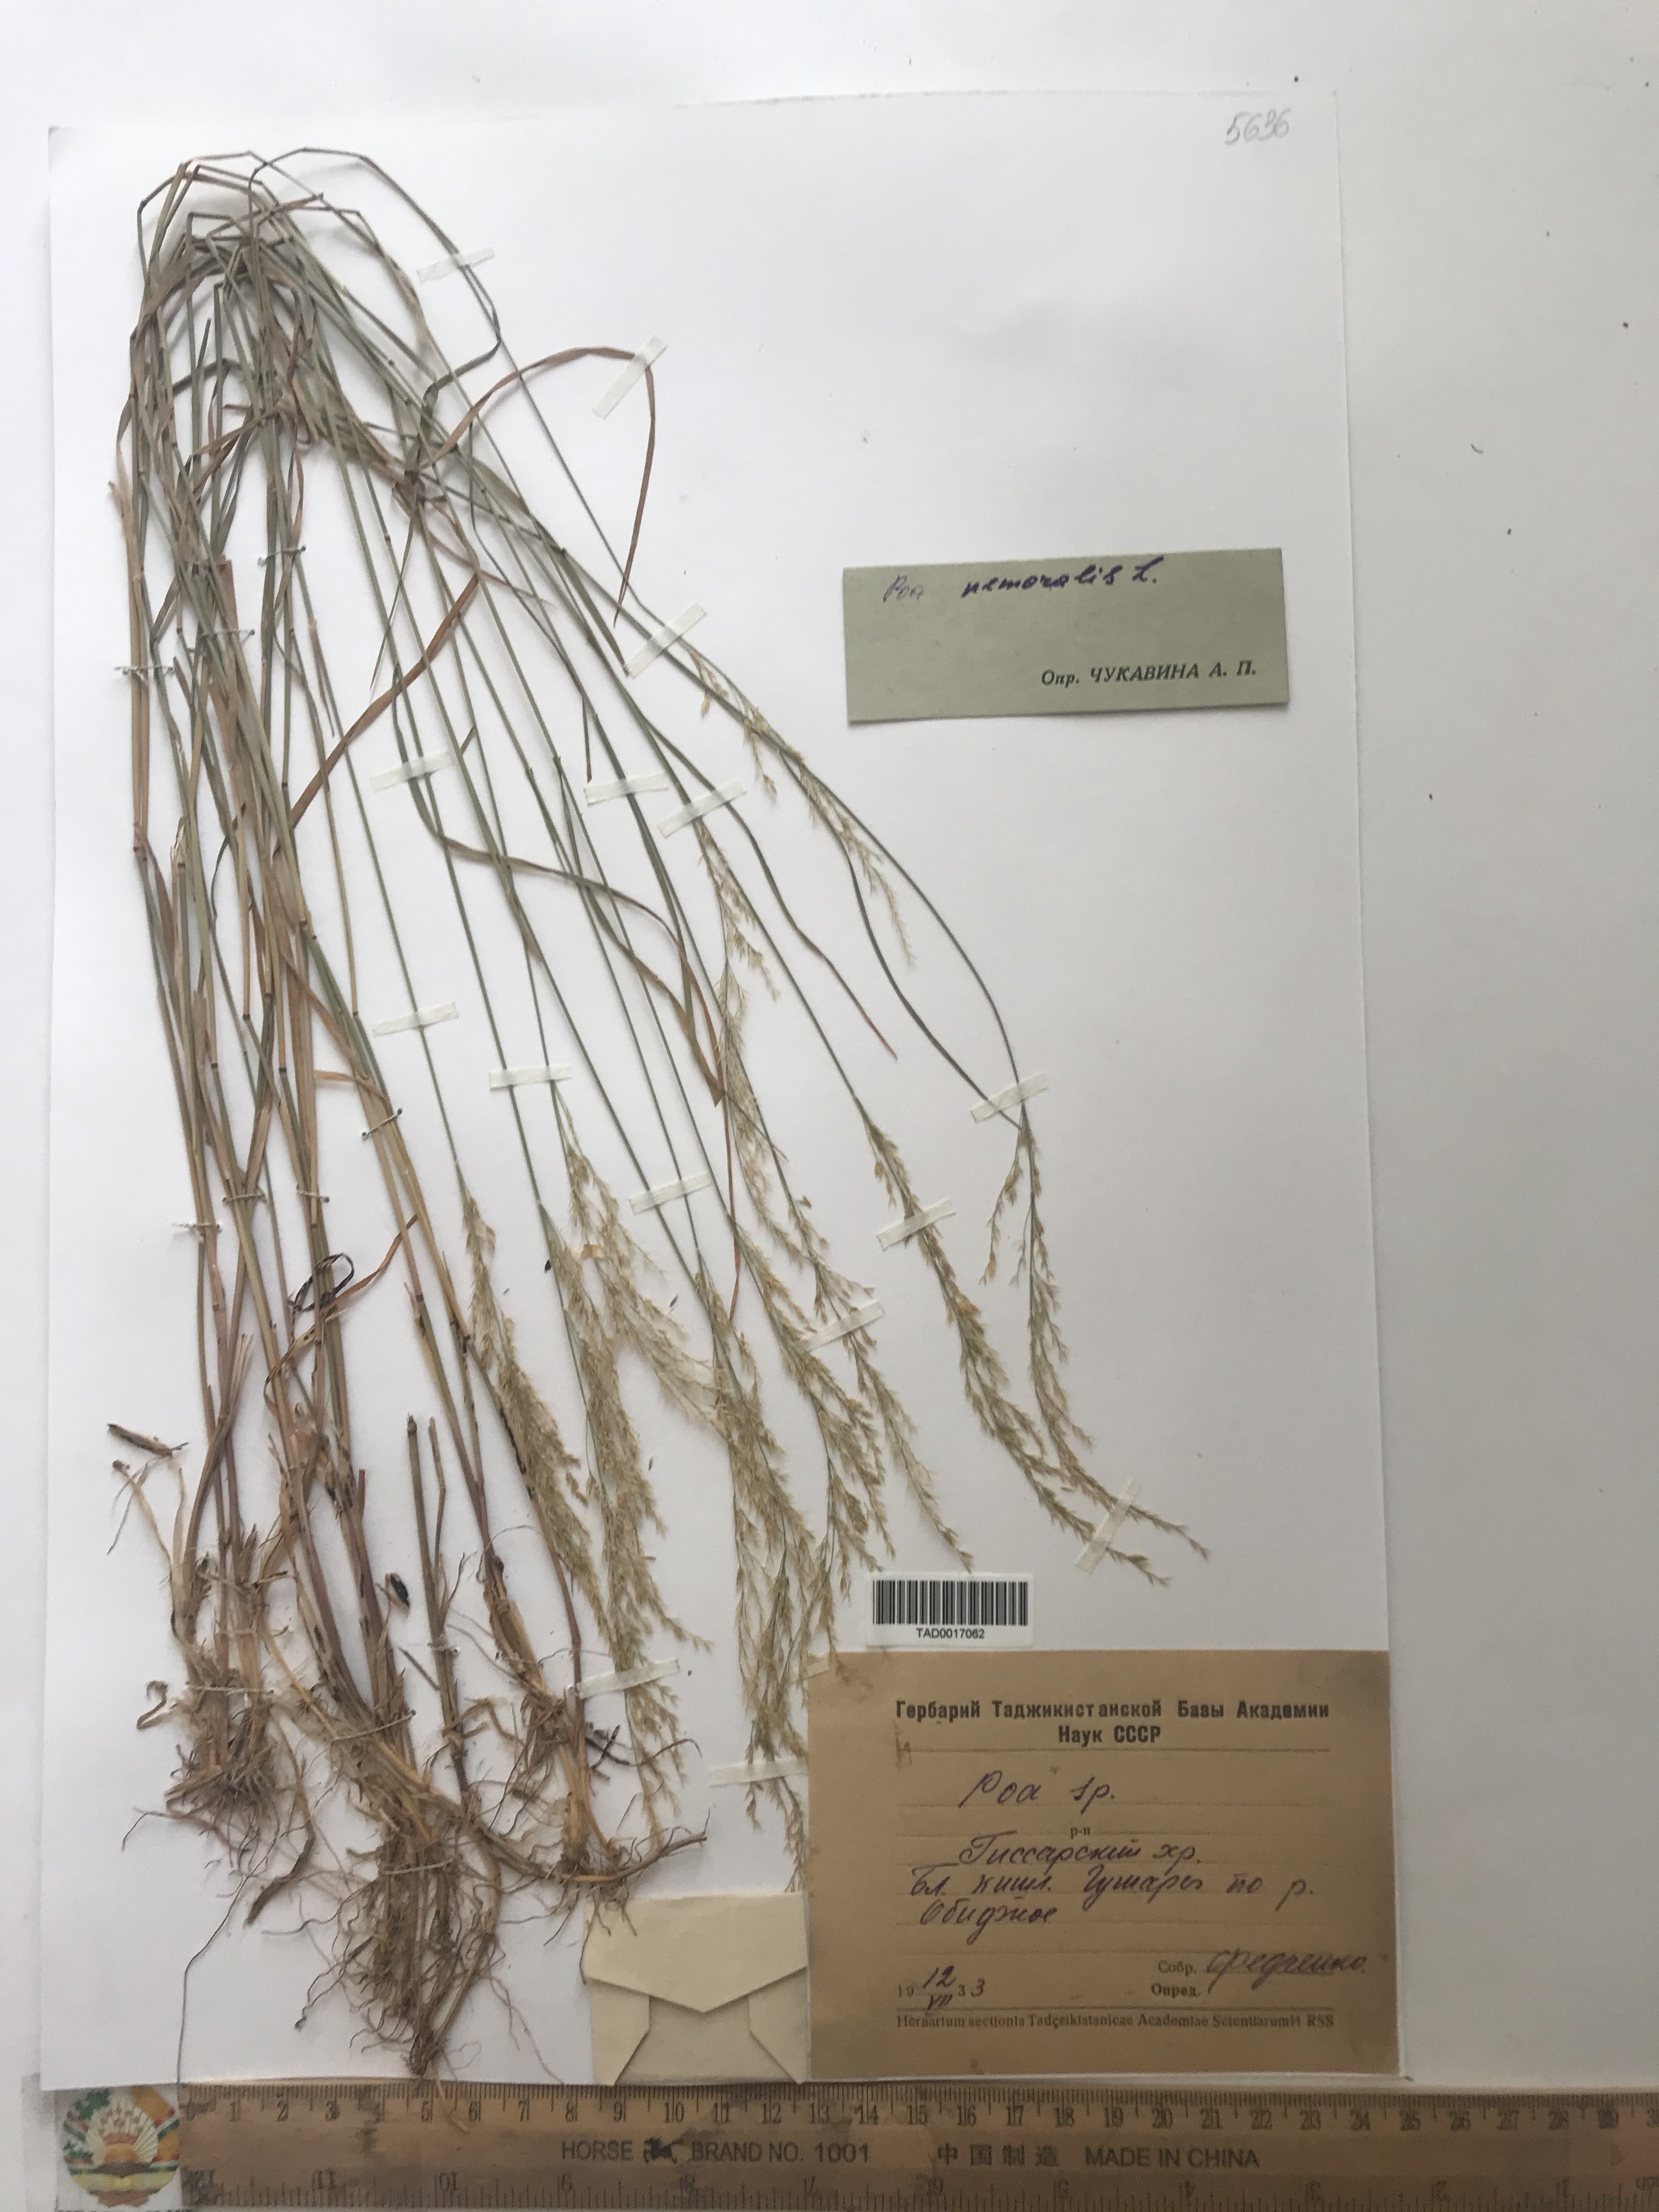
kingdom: Plantae
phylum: Tracheophyta
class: Liliopsida
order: Poales
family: Poaceae
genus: Poa
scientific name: Poa nemoralis
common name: Wood bluegrass
